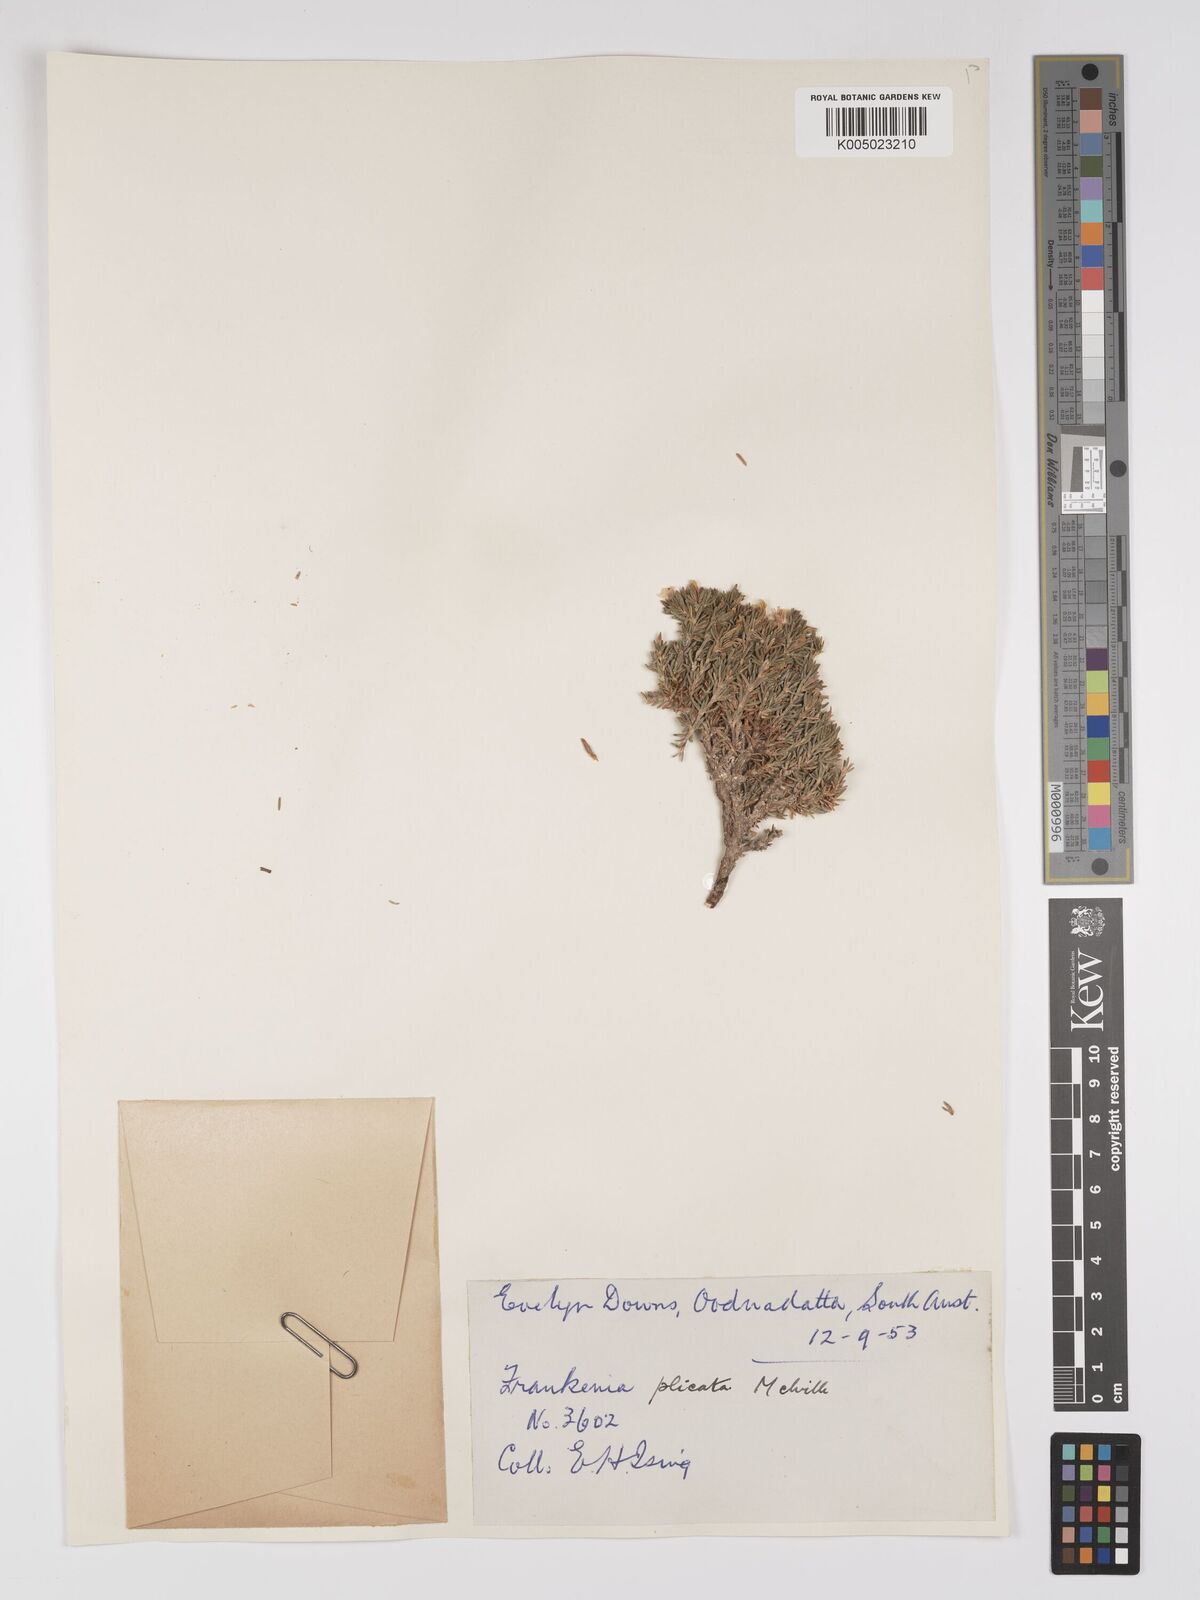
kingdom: Plantae
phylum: Tracheophyta
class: Magnoliopsida
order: Caryophyllales
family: Frankeniaceae
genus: Frankenia
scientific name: Frankenia plicata
